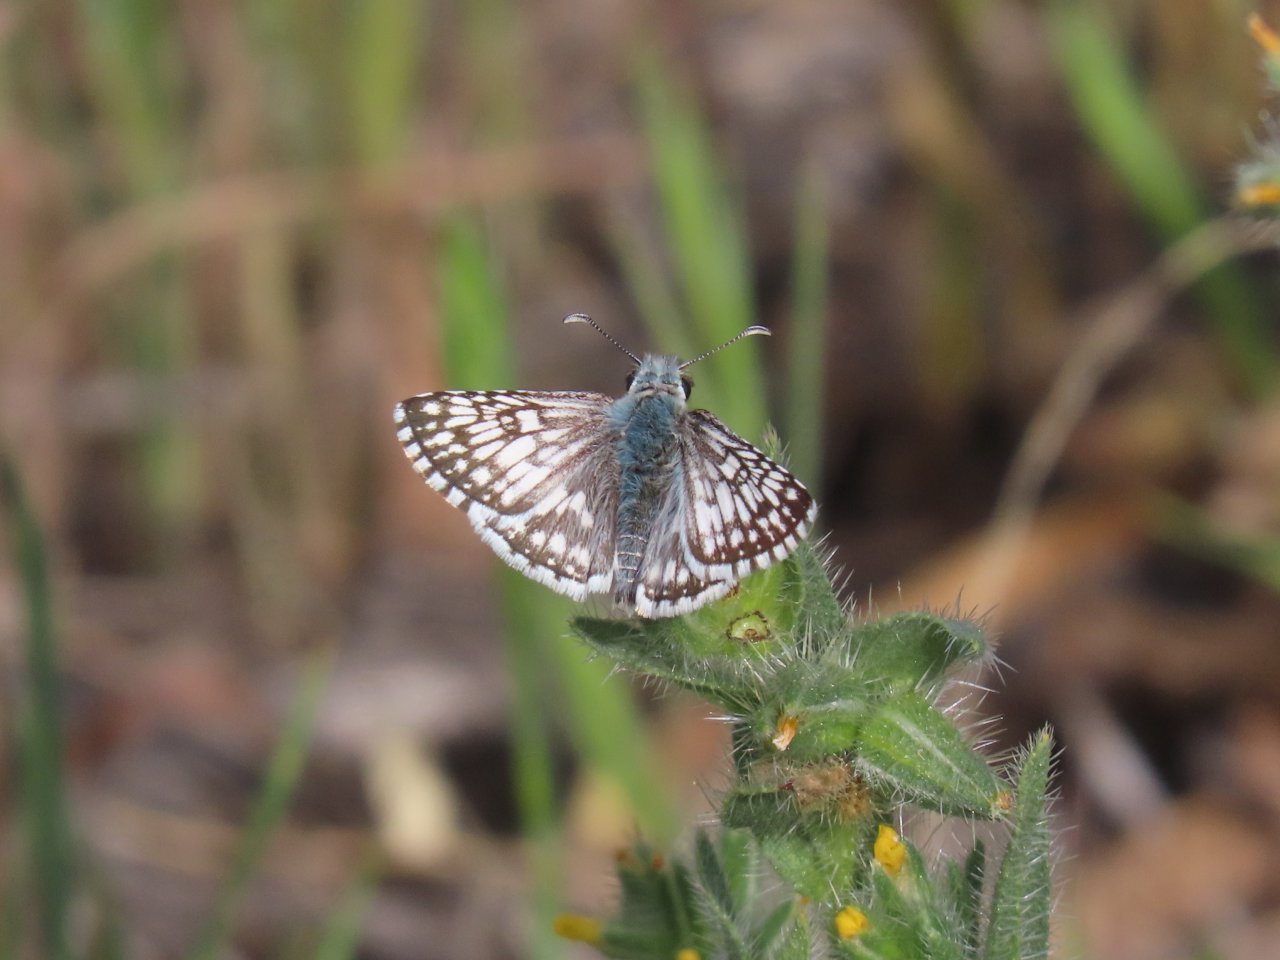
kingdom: Animalia
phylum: Arthropoda
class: Insecta
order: Lepidoptera
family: Hesperiidae
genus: Pyrgus
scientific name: Pyrgus communis
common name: Common Checkered-Skipper
